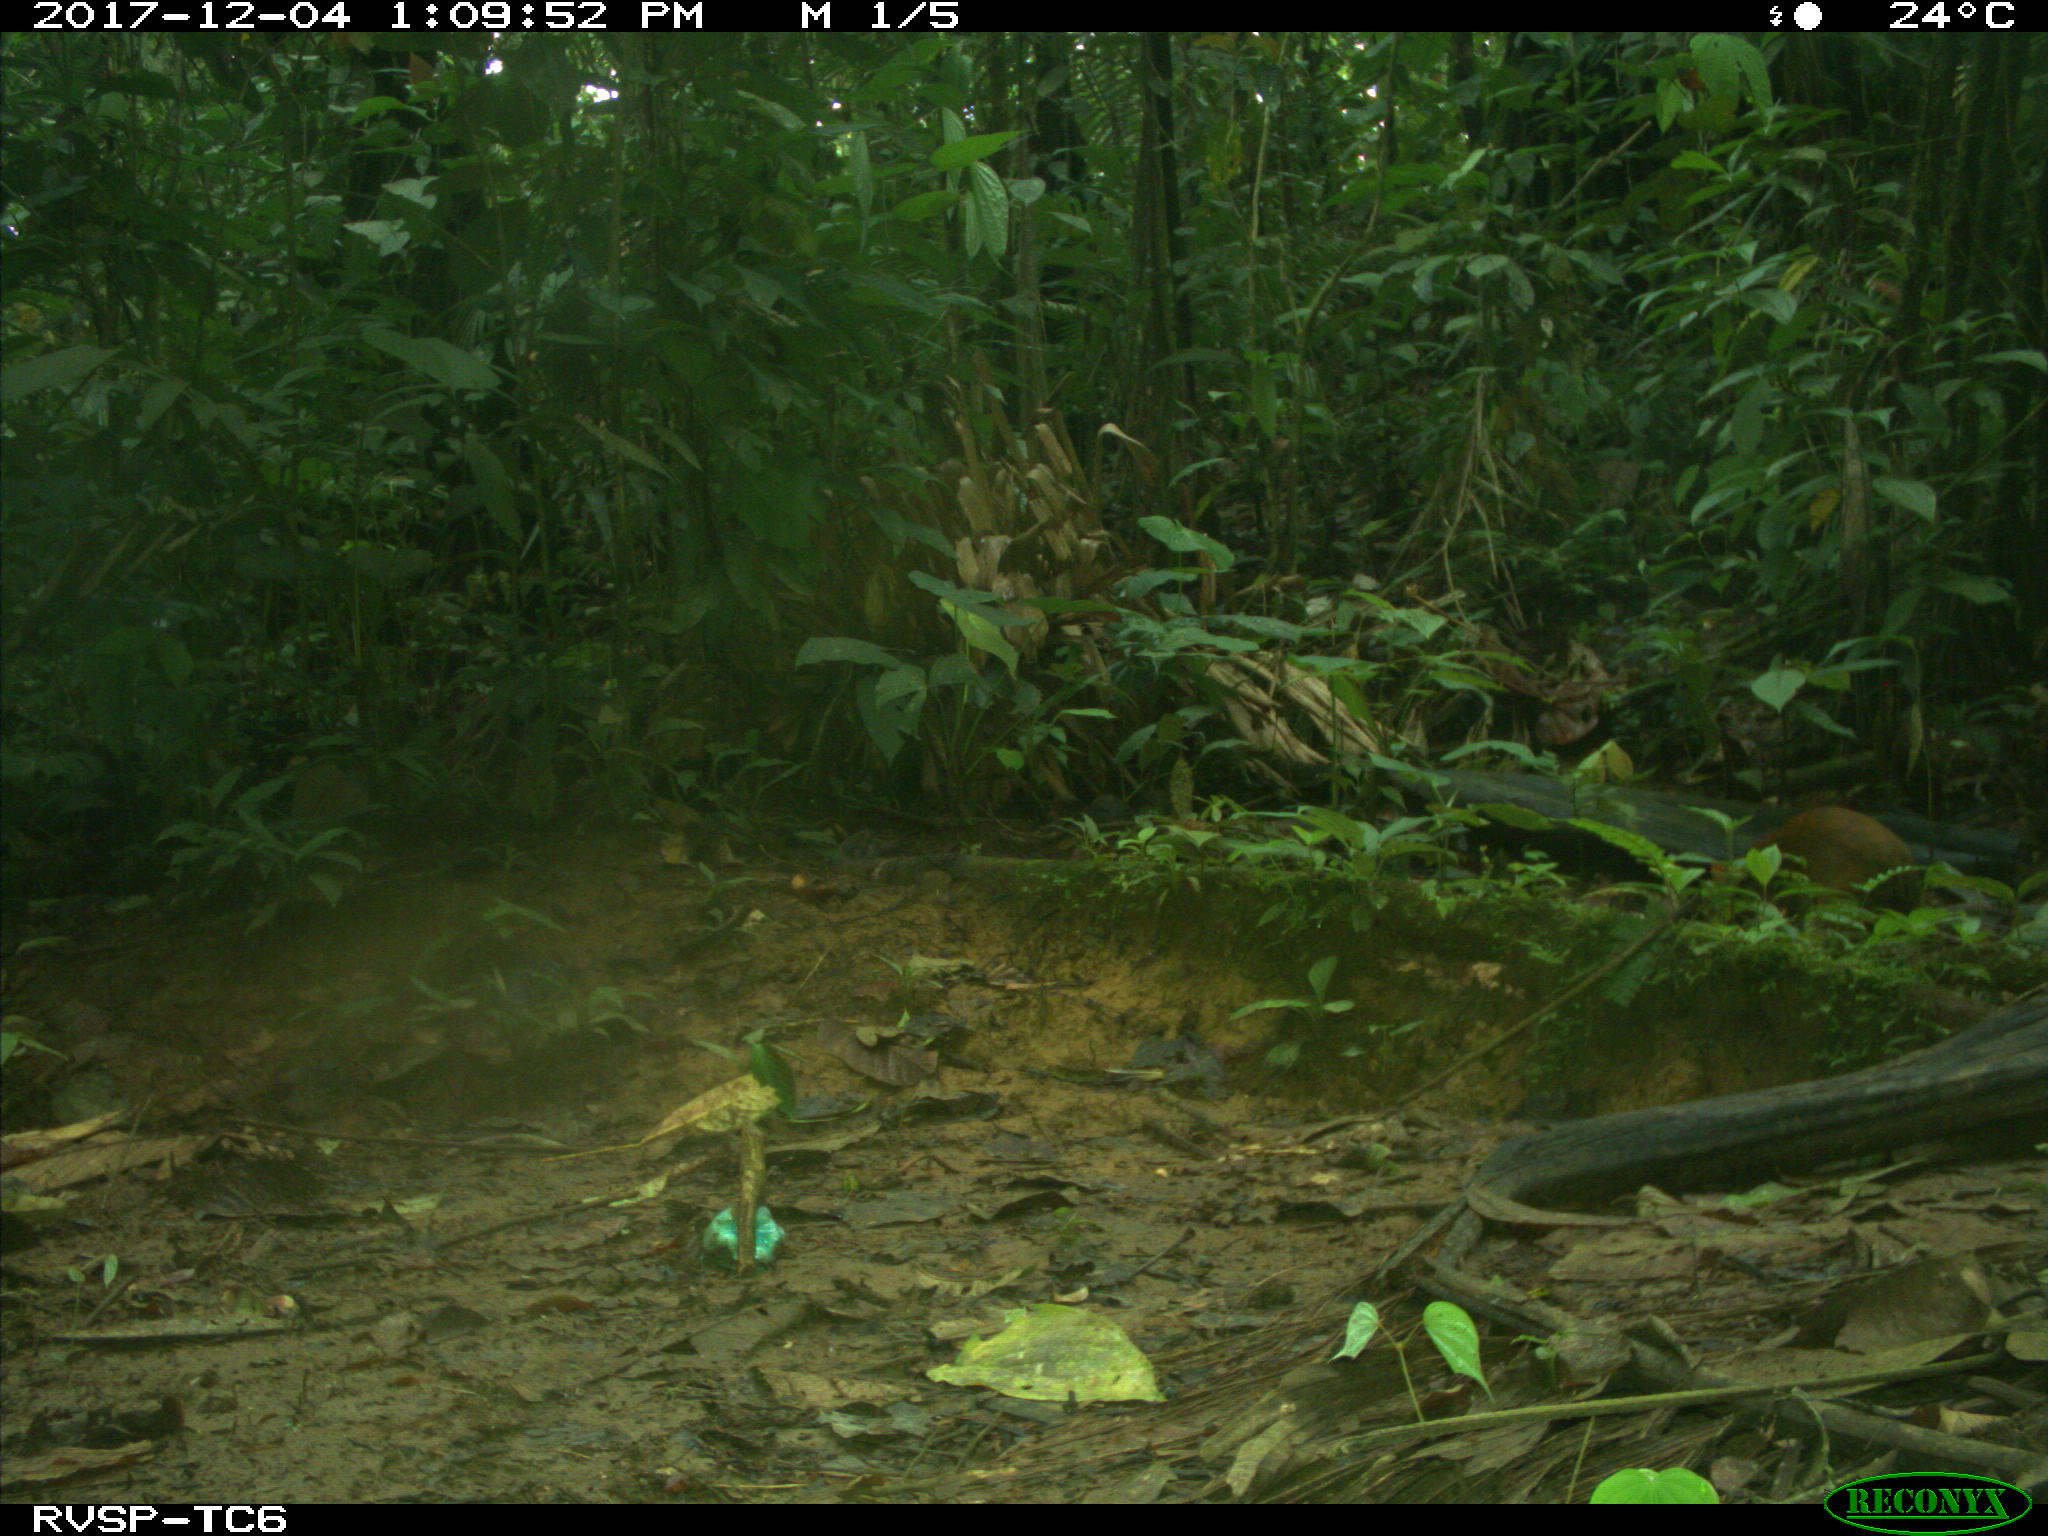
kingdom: Animalia
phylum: Chordata
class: Mammalia
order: Rodentia
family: Dasyproctidae
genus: Dasyprocta
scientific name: Dasyprocta punctata
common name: Central american agouti
